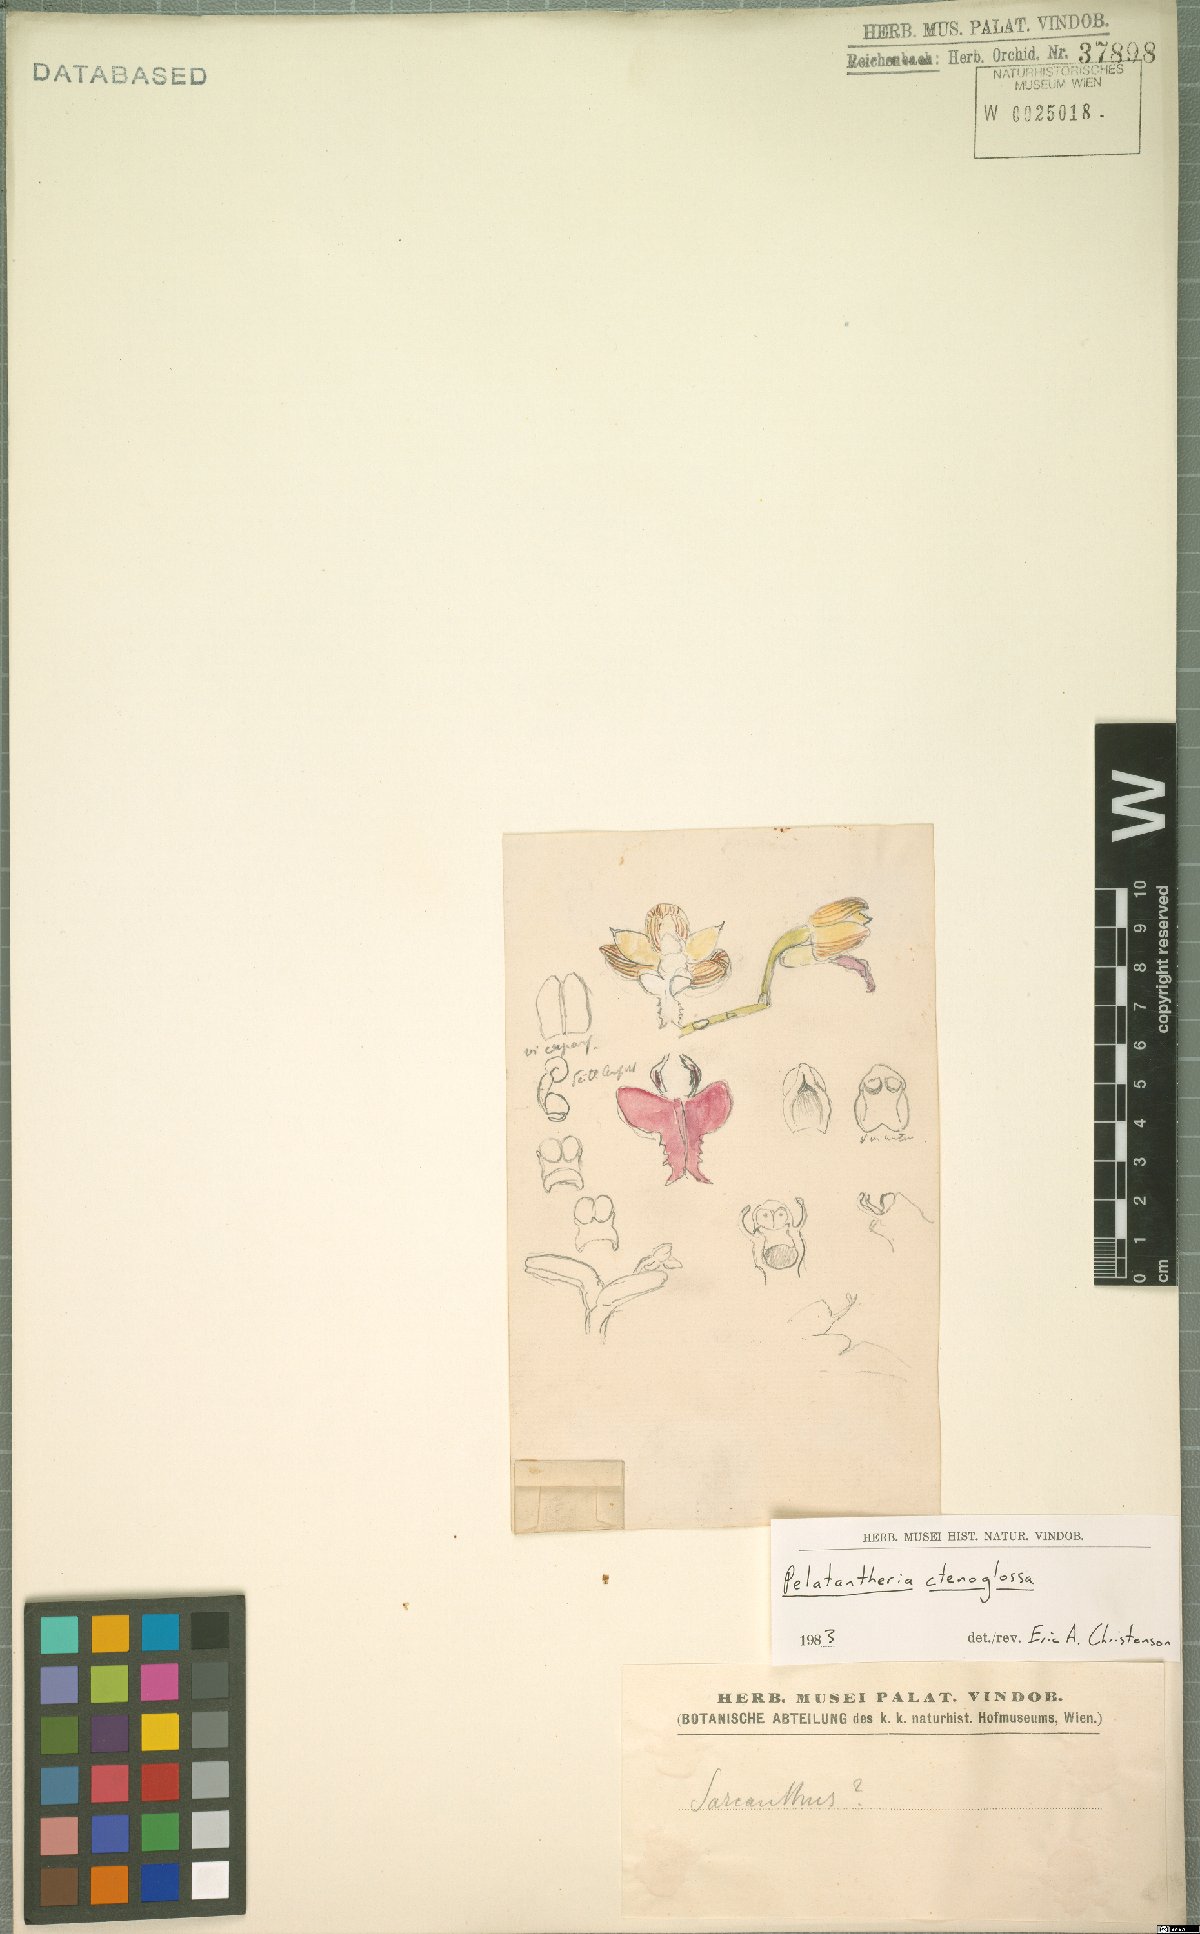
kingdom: Plantae
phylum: Tracheophyta
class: Liliopsida
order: Asparagales
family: Orchidaceae
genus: Pelatantheria
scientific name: Pelatantheria ctenoglossum
